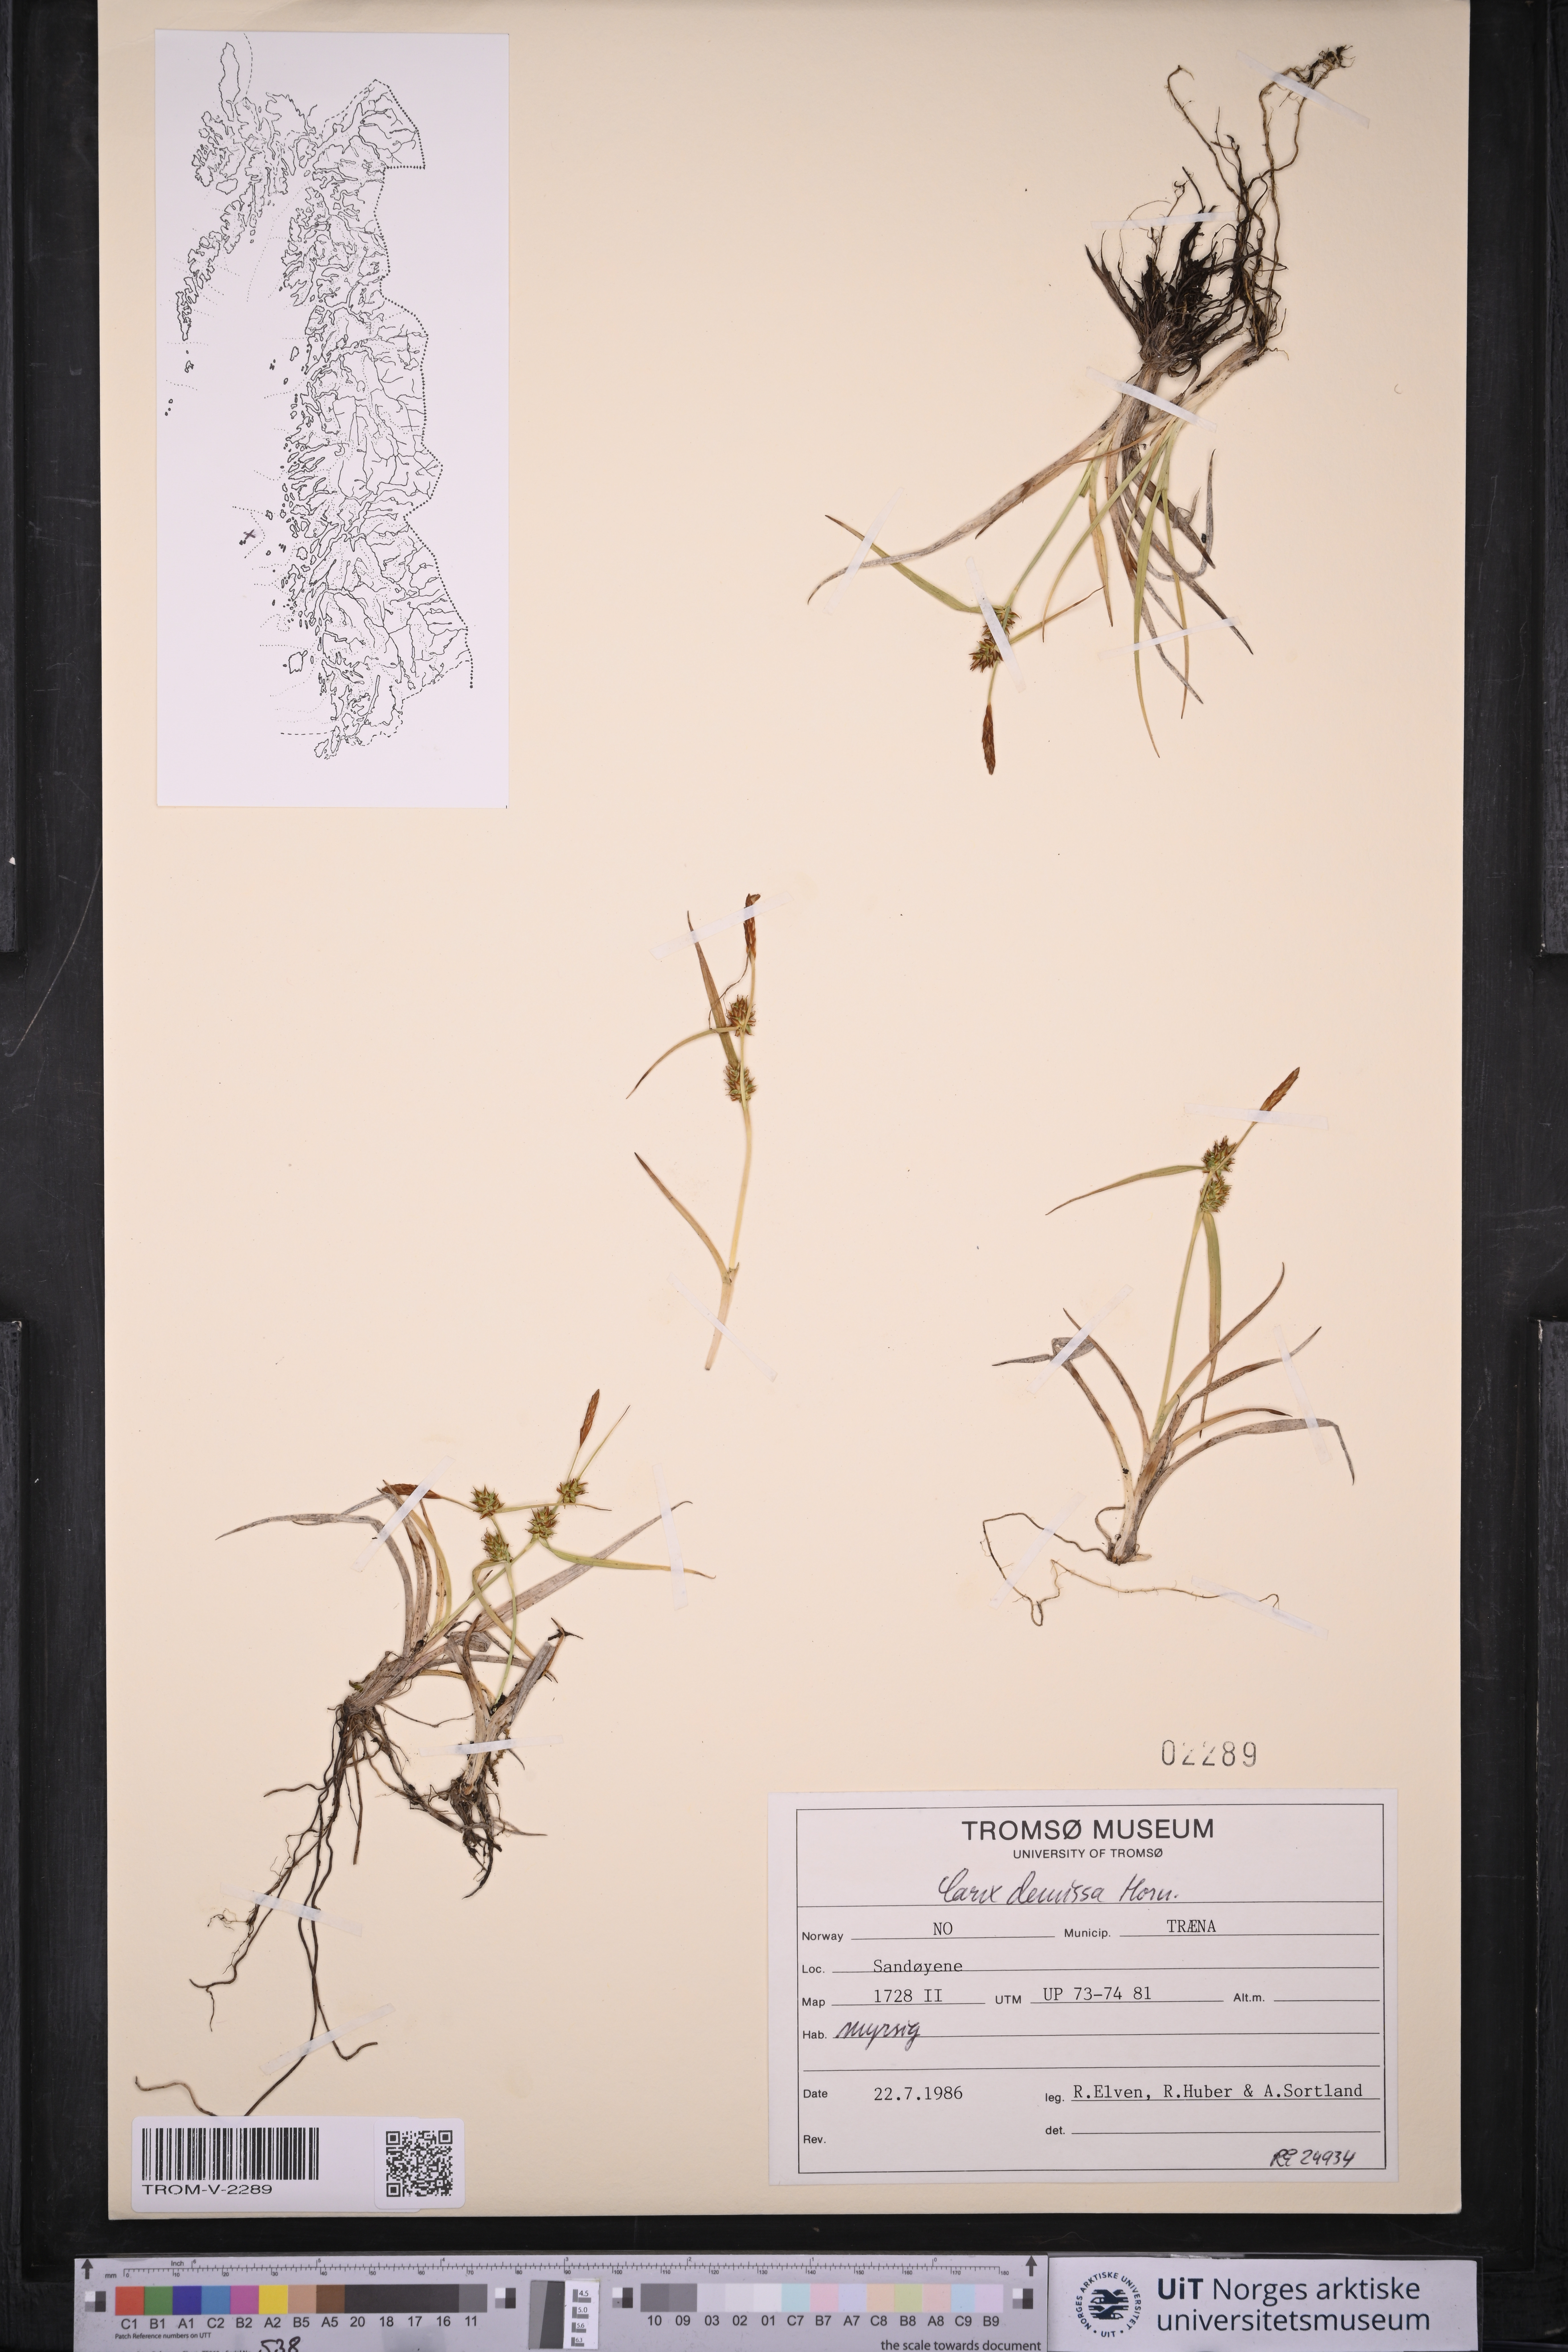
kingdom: Plantae
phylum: Tracheophyta
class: Liliopsida
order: Poales
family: Cyperaceae
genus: Carex
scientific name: Carex demissa
